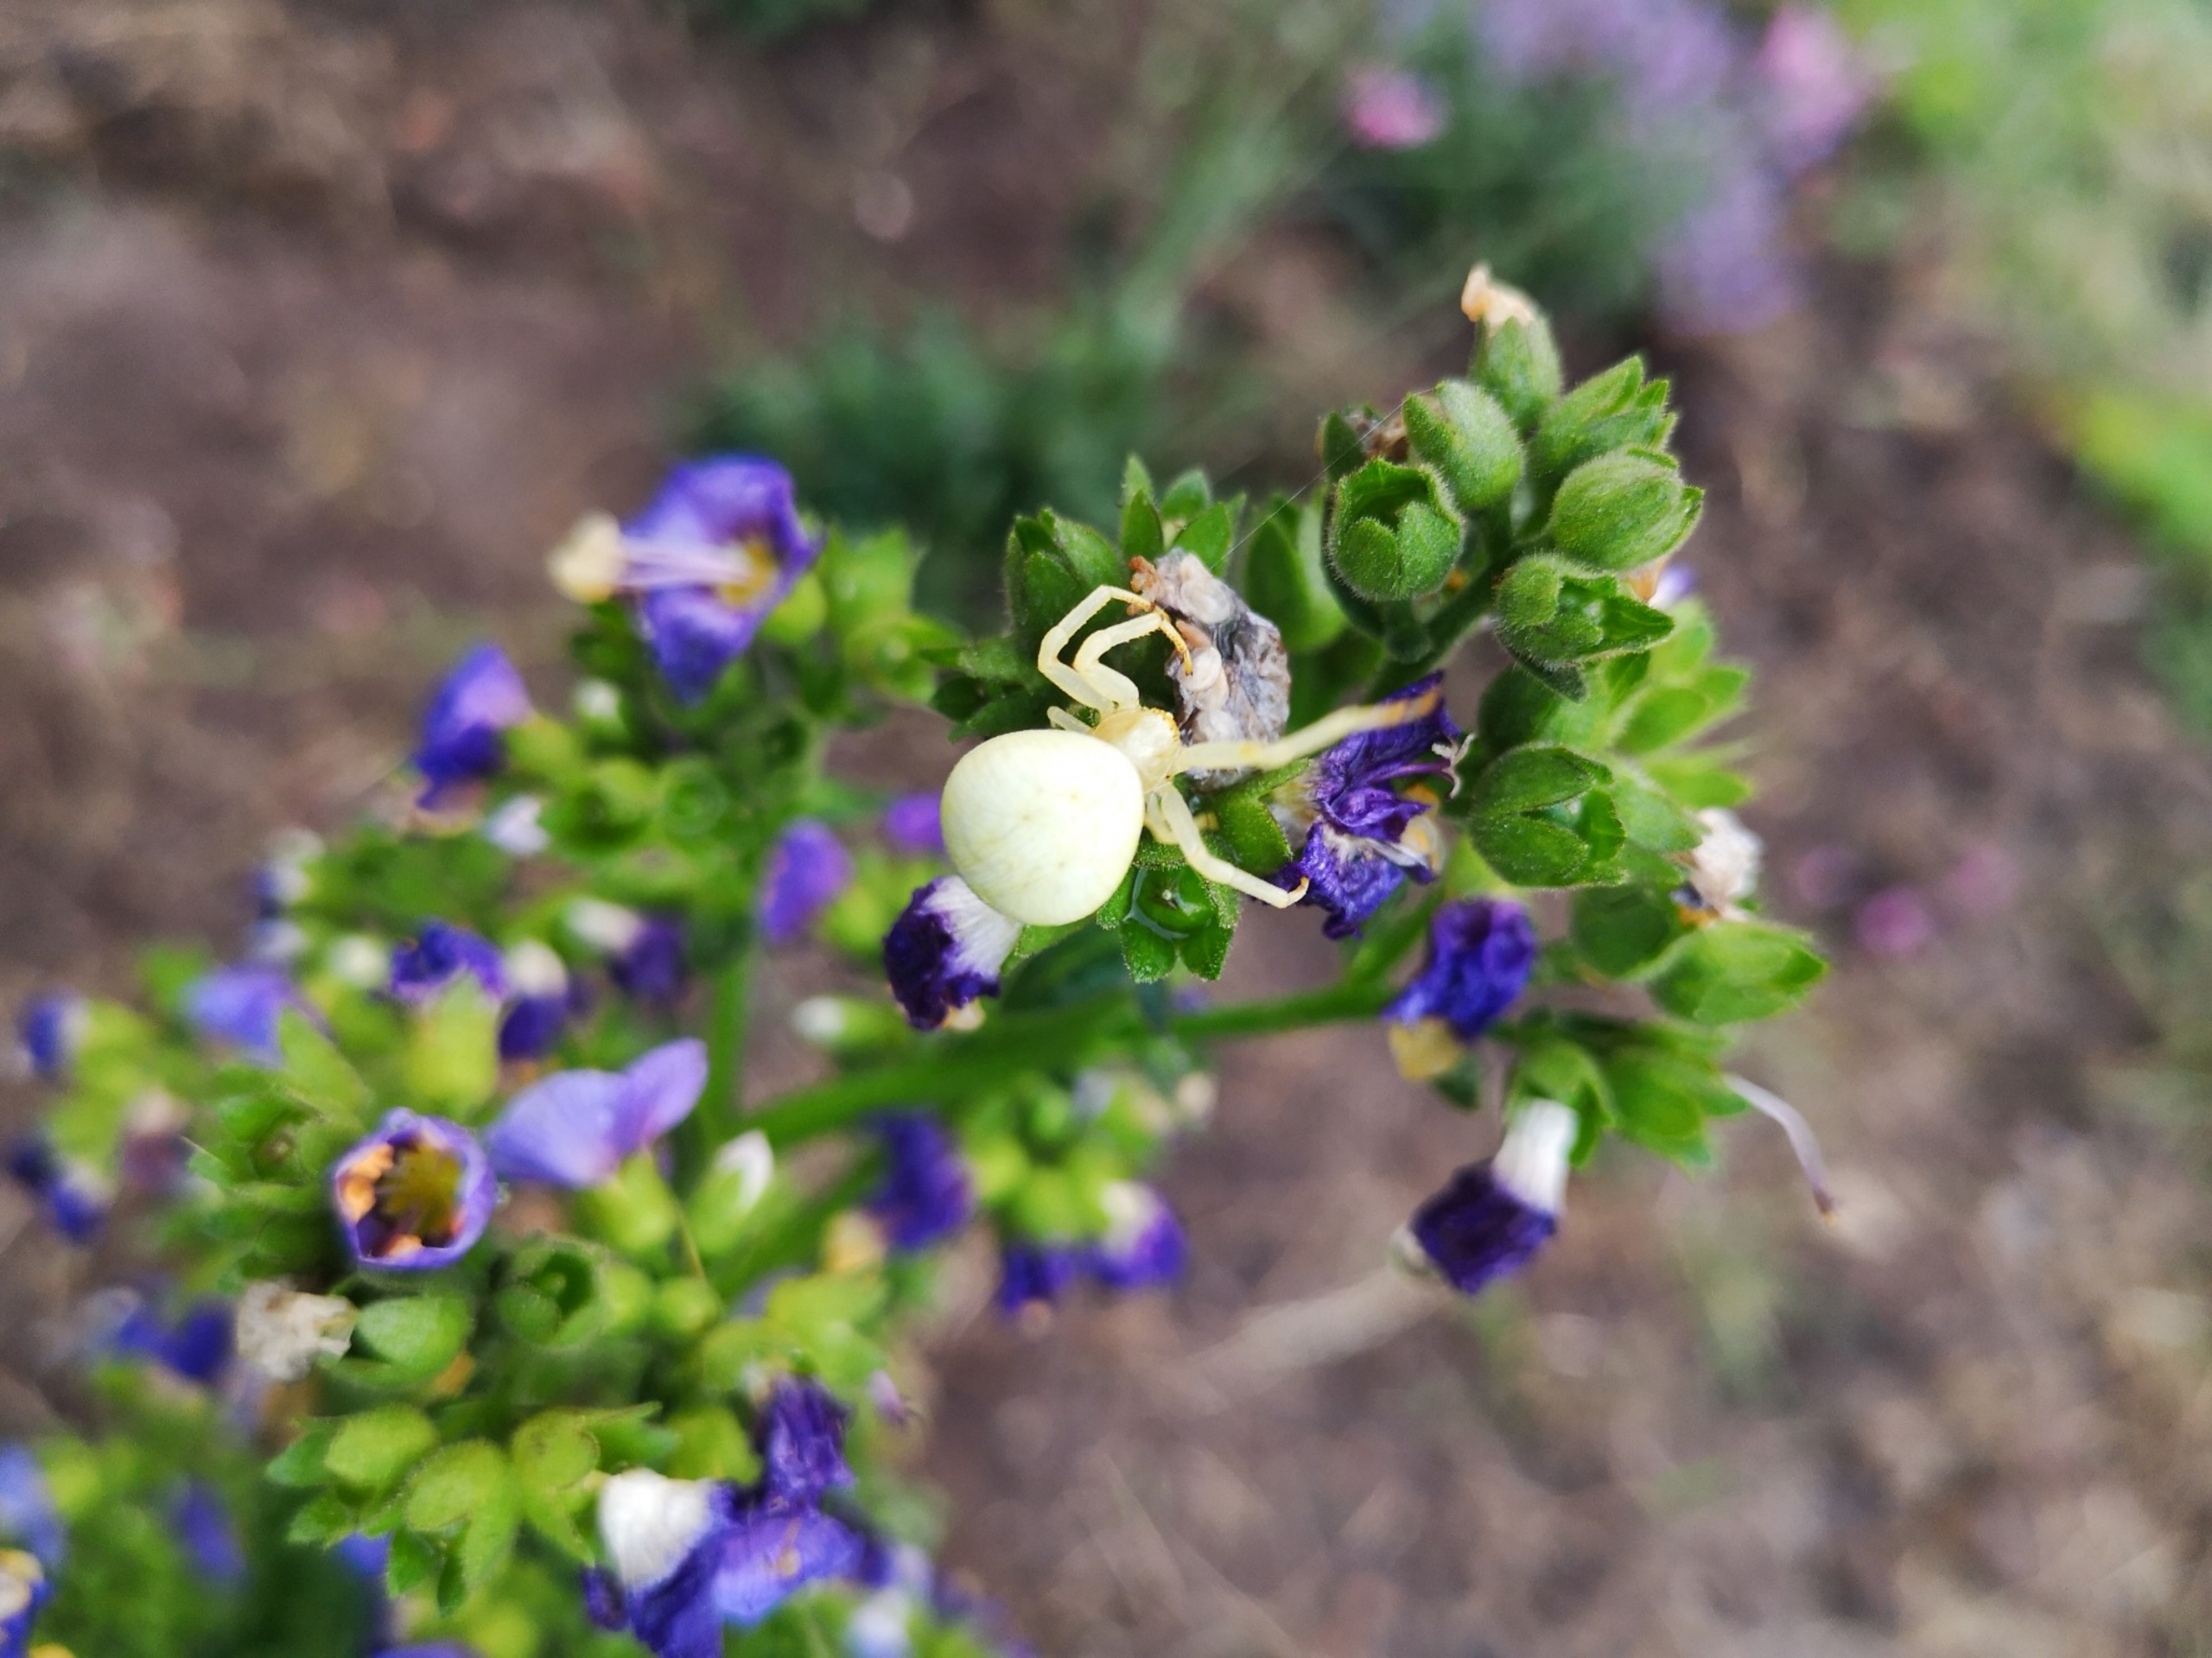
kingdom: Animalia
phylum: Arthropoda
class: Arachnida
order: Araneae
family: Thomisidae
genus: Misumena
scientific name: Misumena vatia
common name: Kamæleonedderkop
